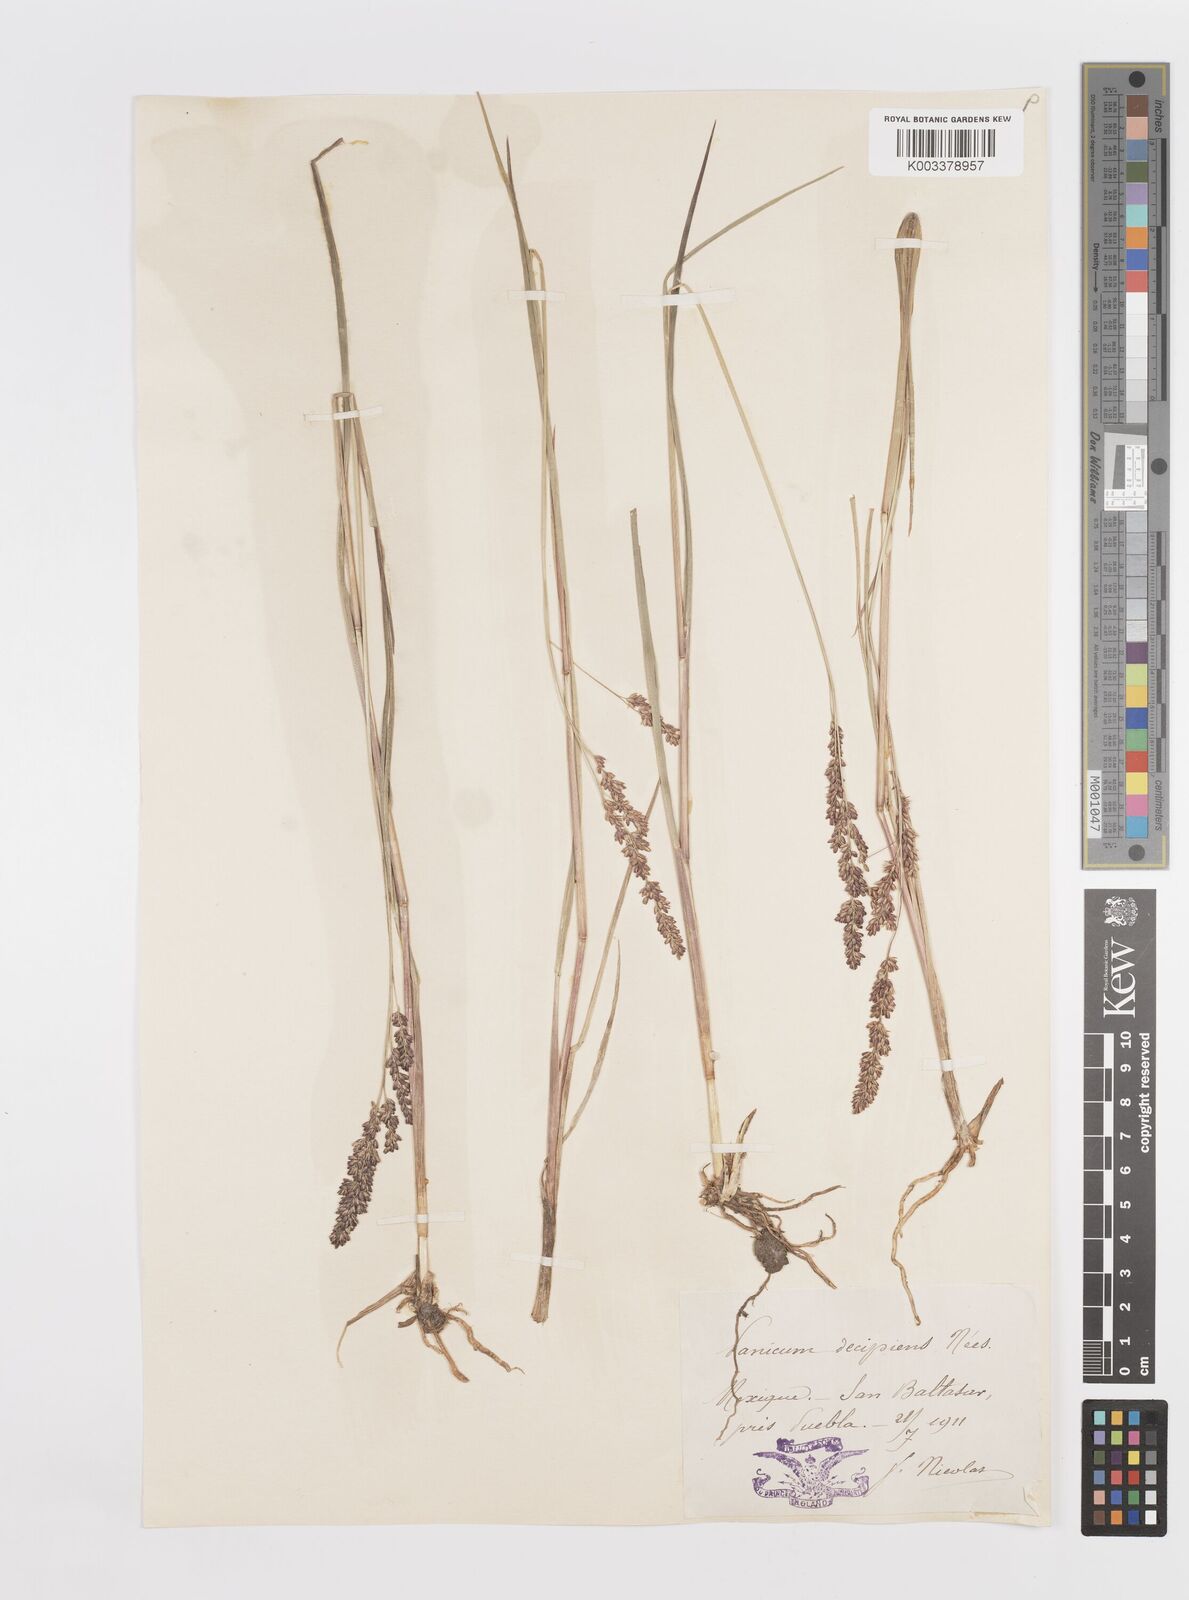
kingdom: Plantae
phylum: Tracheophyta
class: Liliopsida
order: Poales
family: Poaceae
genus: Steinchisma
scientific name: Steinchisma decipiens
